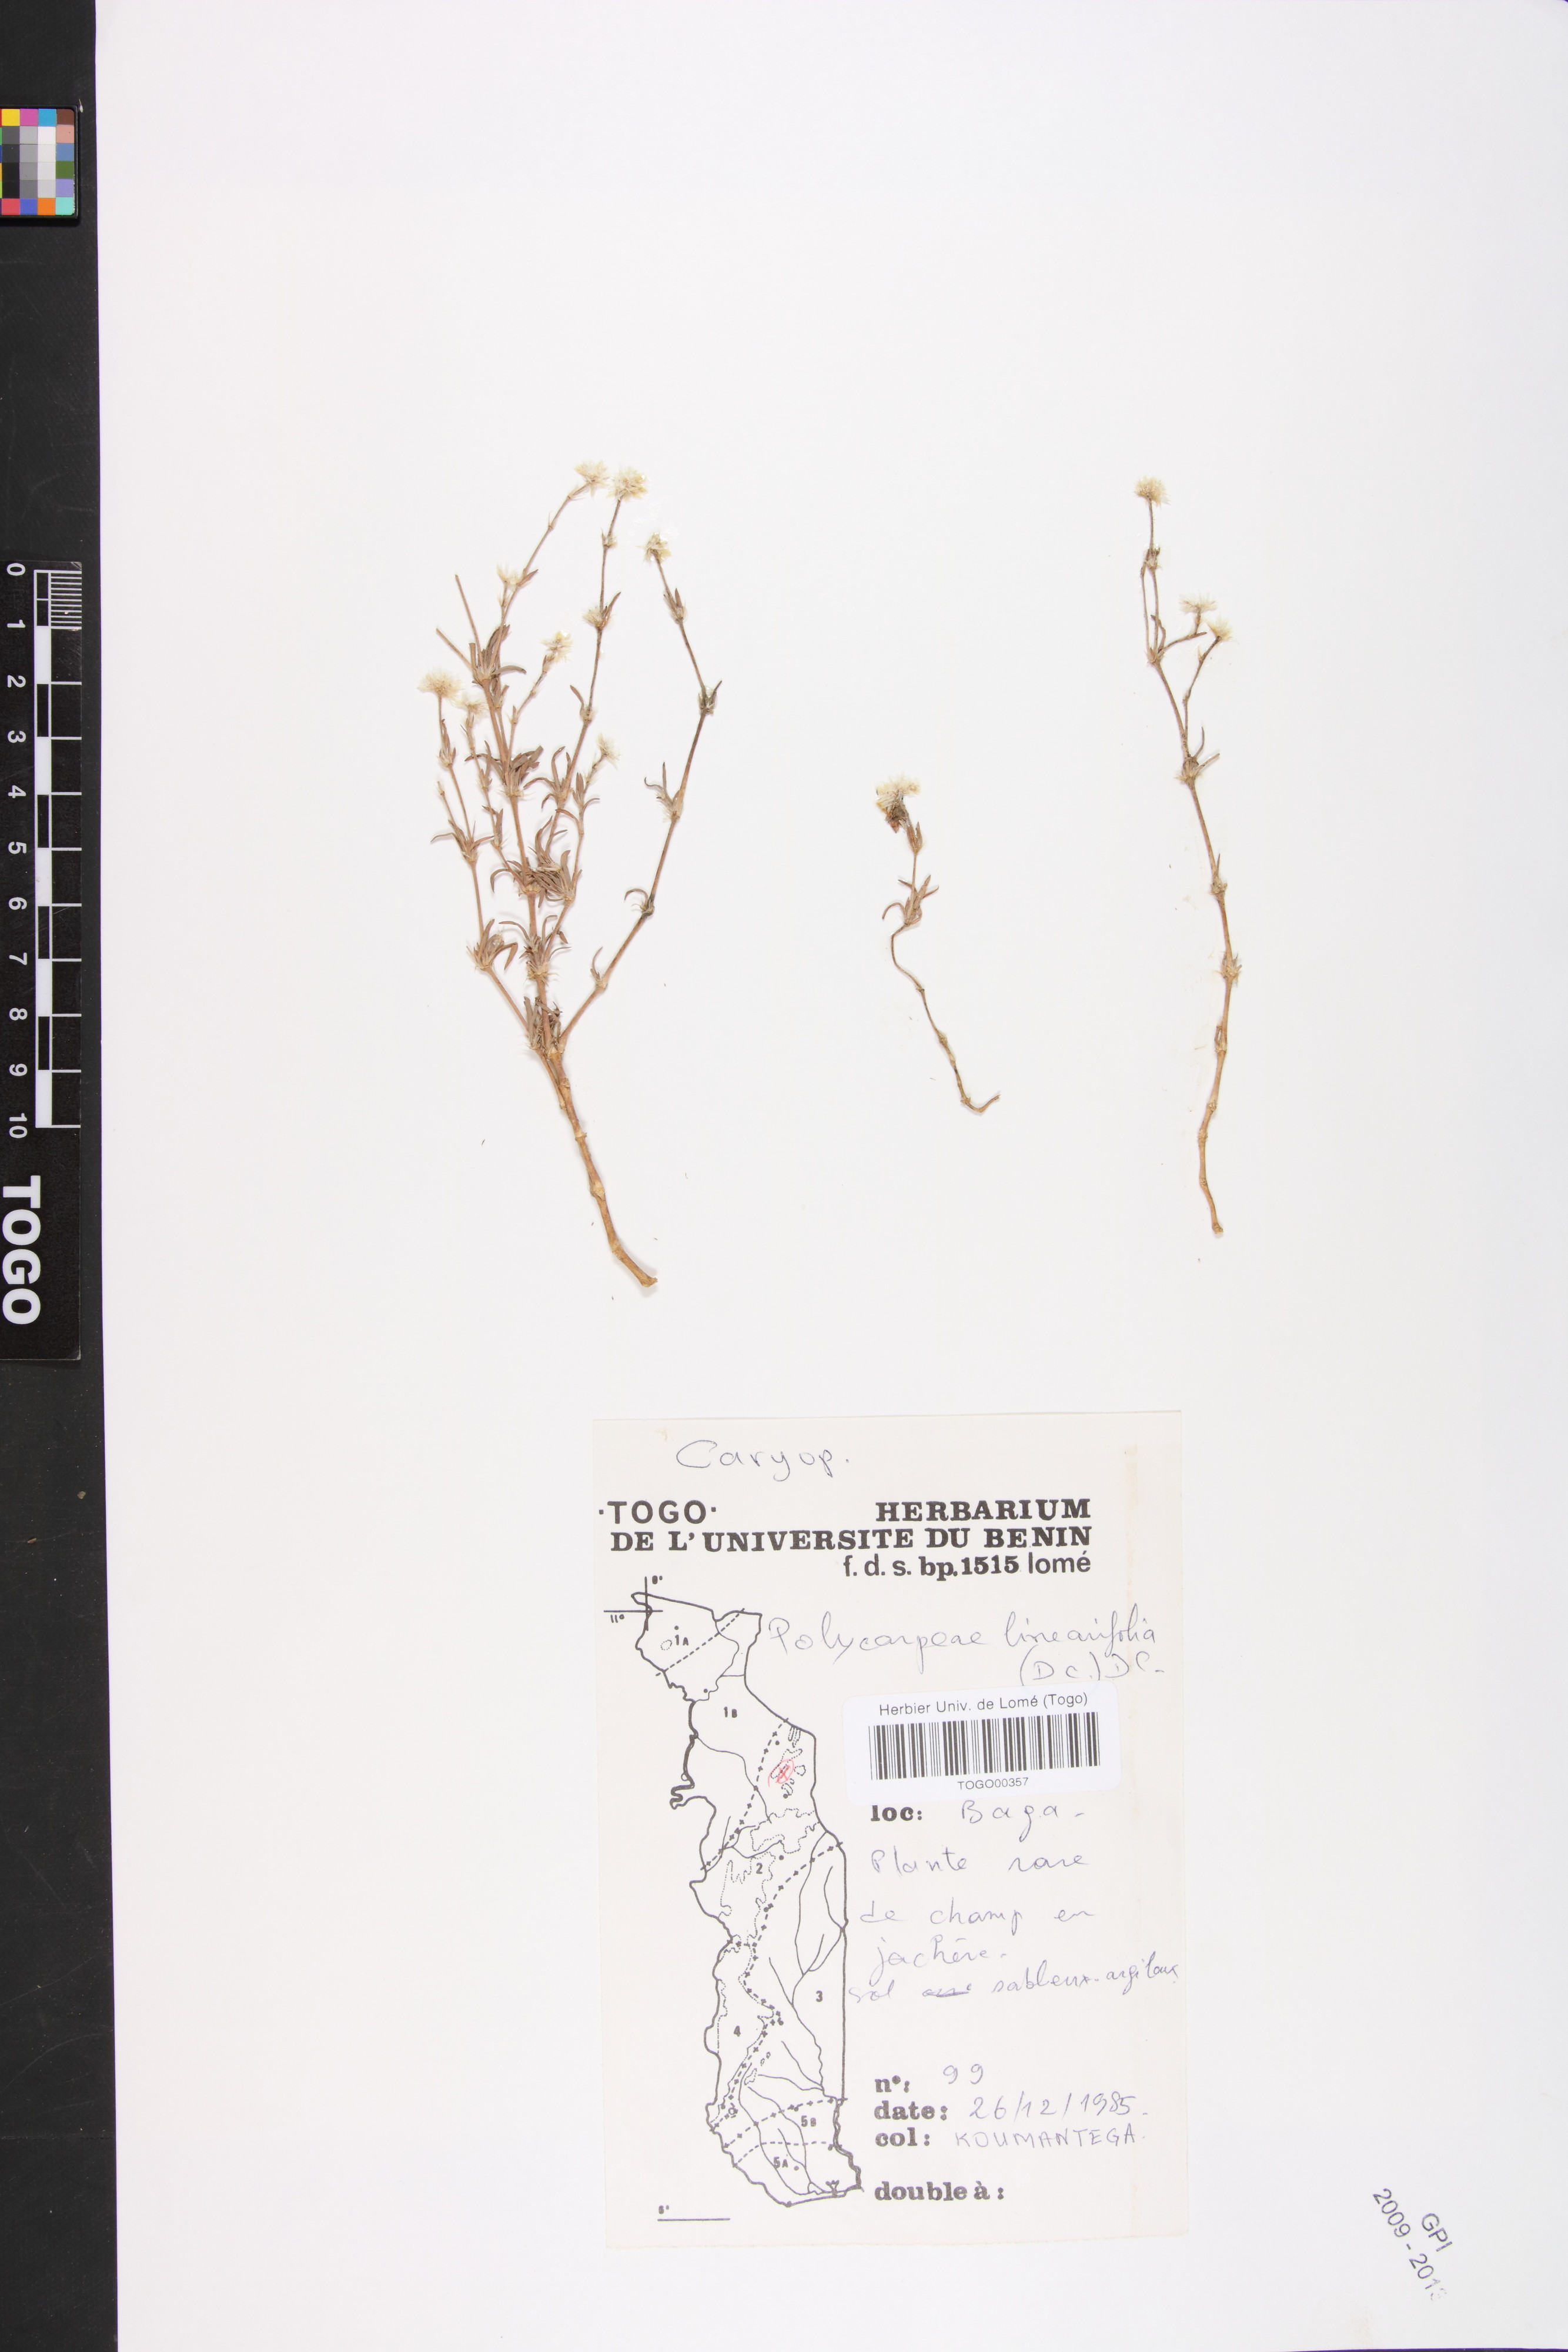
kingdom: Plantae
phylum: Tracheophyta
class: Magnoliopsida
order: Caryophyllales
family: Caryophyllaceae
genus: Polycarpaea
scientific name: Polycarpaea linearifolia
